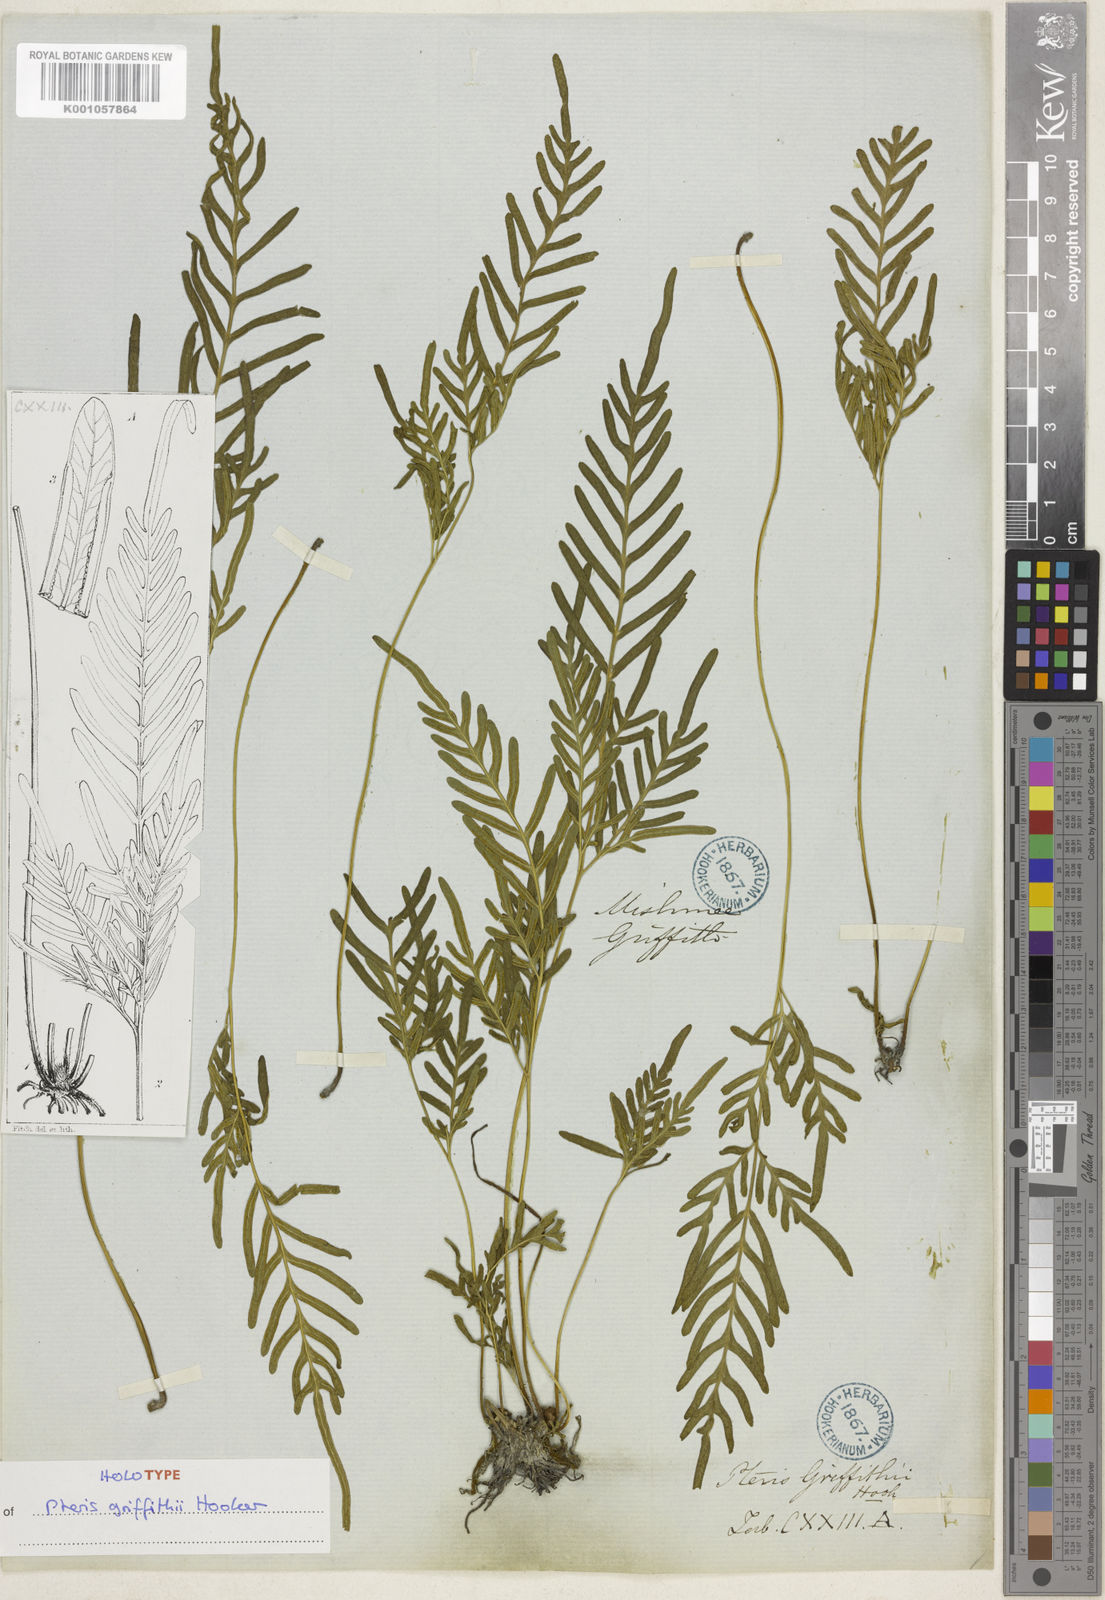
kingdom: Plantae
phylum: Tracheophyta
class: Polypodiopsida
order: Polypodiales
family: Pteridaceae
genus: Pteris
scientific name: Pteris griffithii
